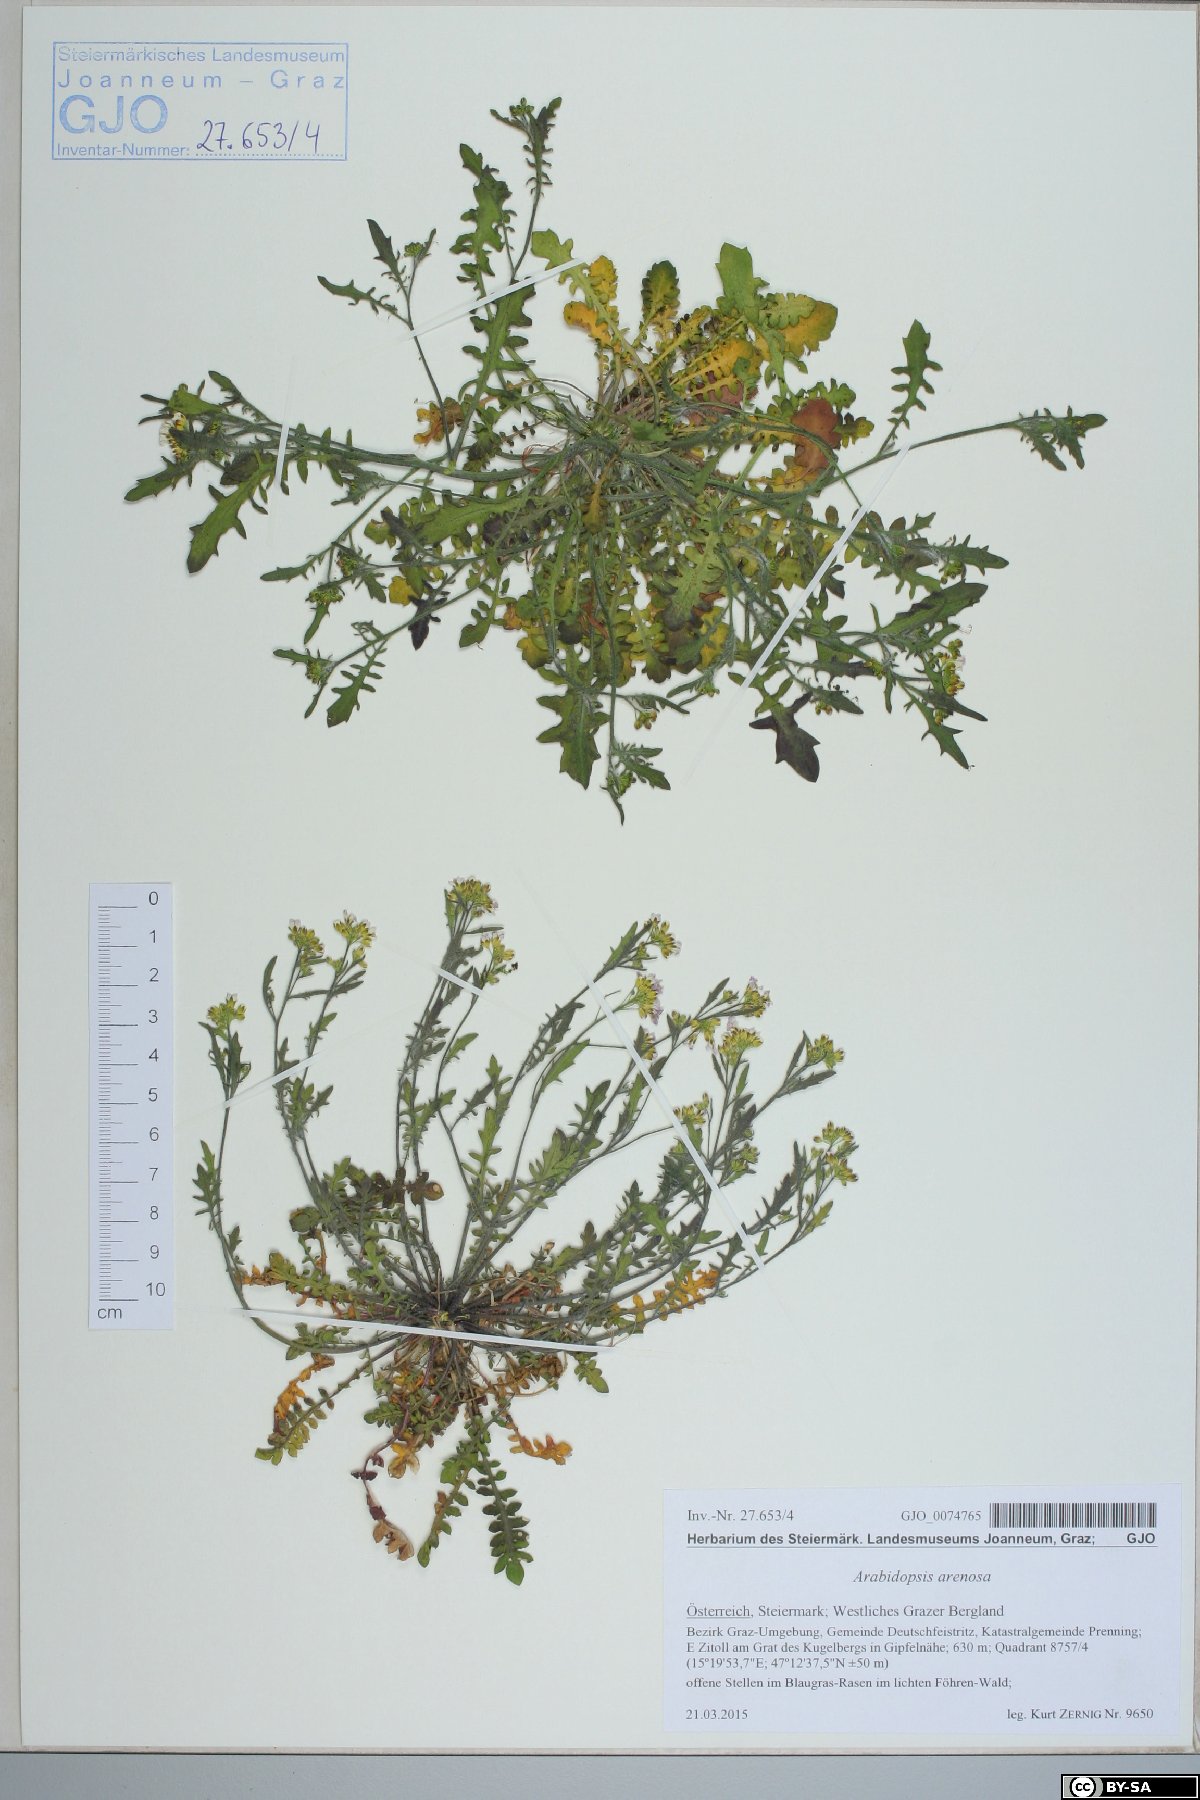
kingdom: Plantae
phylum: Tracheophyta
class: Magnoliopsida
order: Brassicales
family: Brassicaceae
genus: Arabidopsis
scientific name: Arabidopsis arenosa
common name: Sand rock-cress
